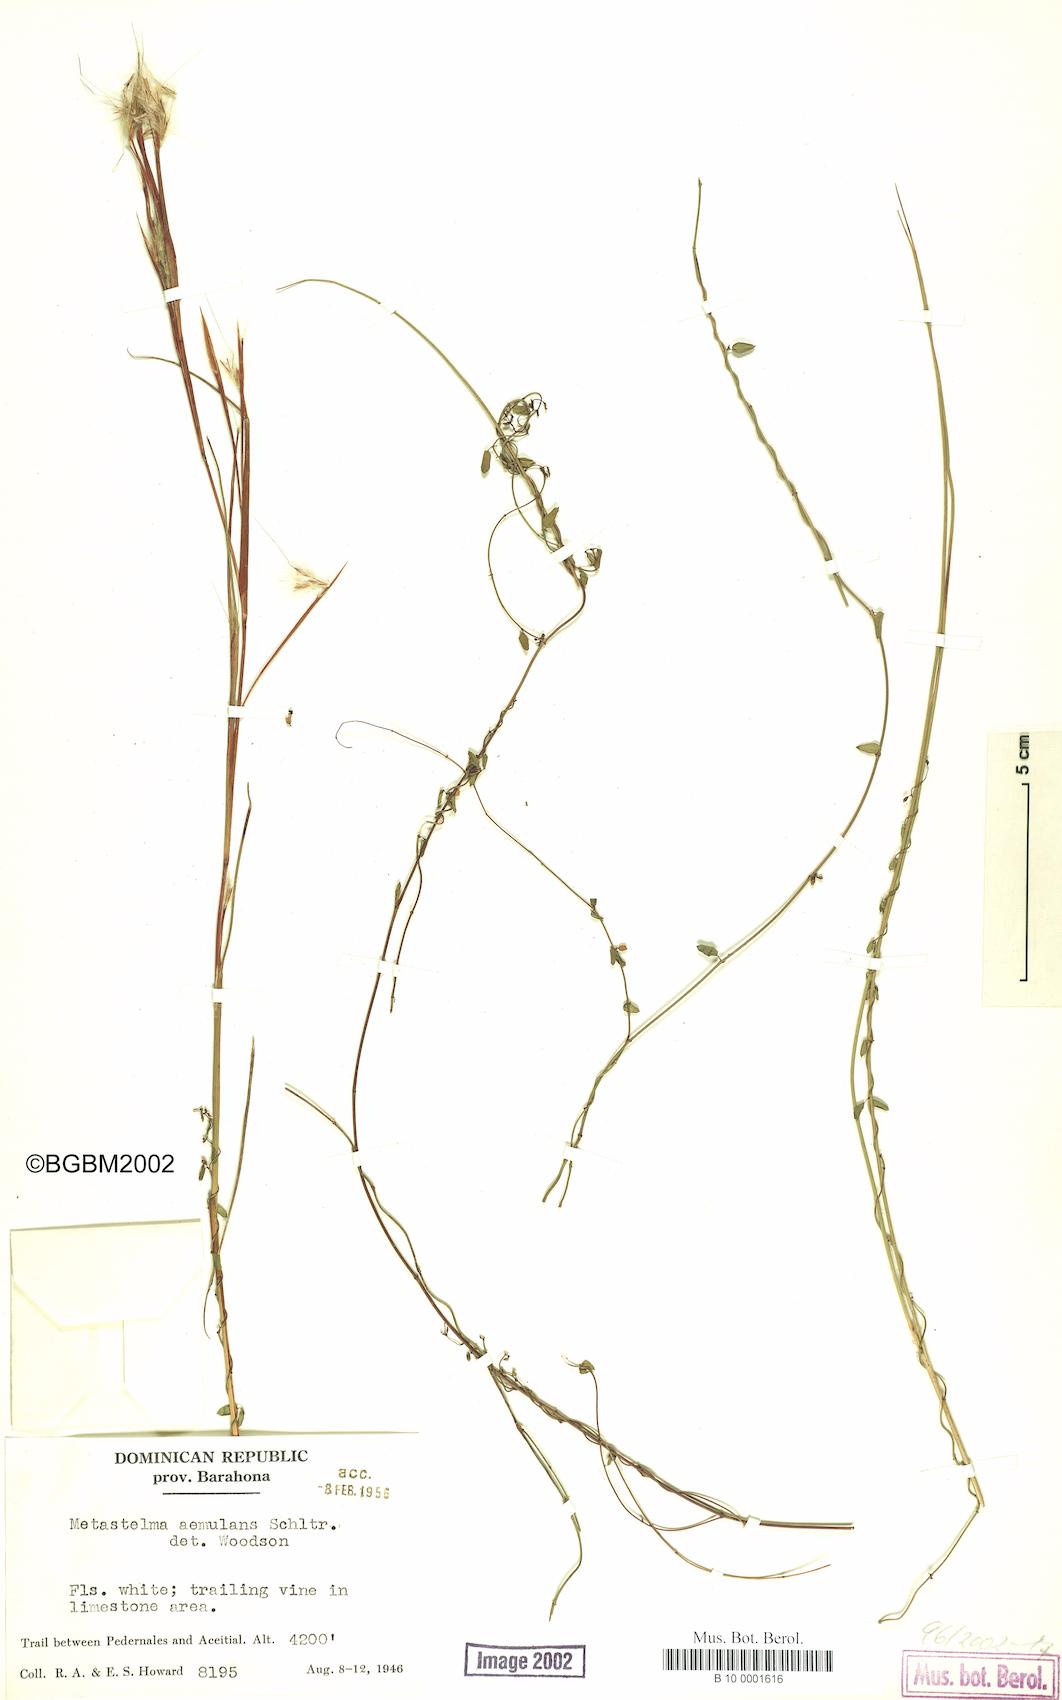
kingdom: Plantae
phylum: Tracheophyta
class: Magnoliopsida
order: Gentianales
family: Apocynaceae
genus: Metastelma
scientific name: Metastelma aemulans
